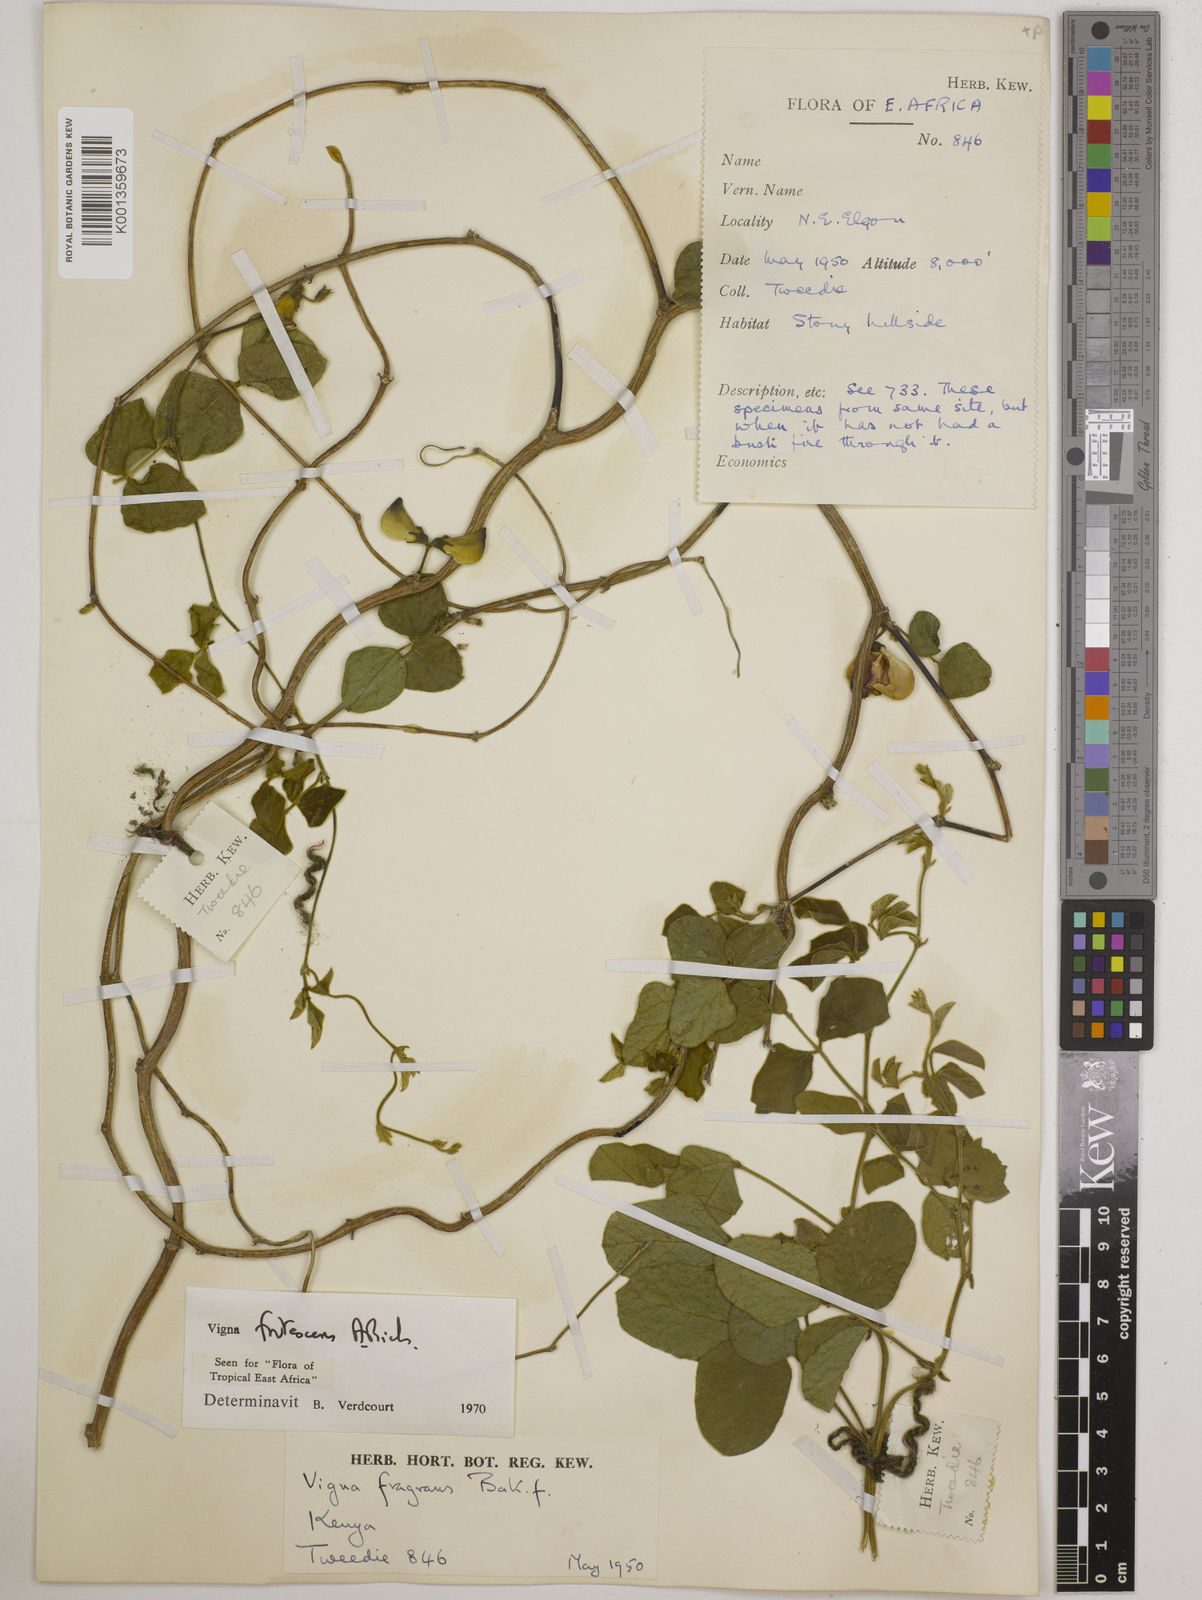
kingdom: Plantae
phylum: Tracheophyta
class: Magnoliopsida
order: Fabales
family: Fabaceae
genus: Vigna
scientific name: Vigna frutescens
